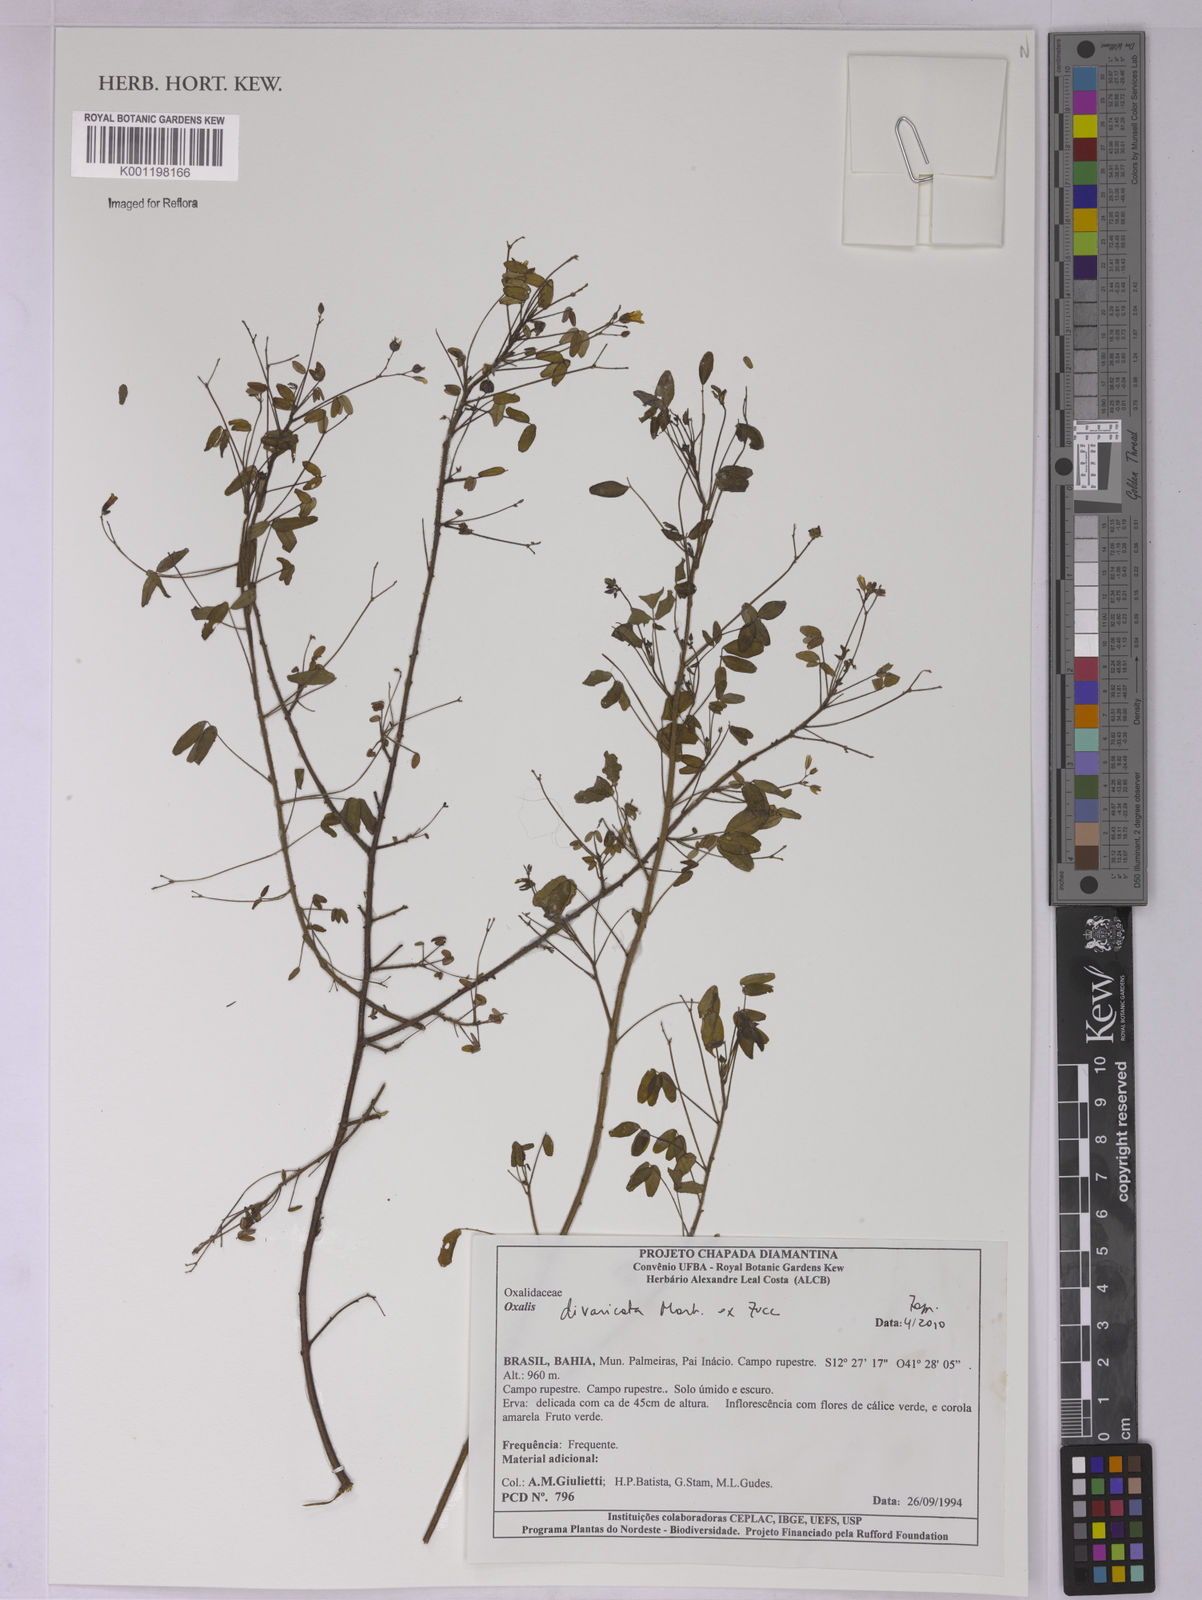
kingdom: Plantae
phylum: Tracheophyta
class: Magnoliopsida
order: Oxalidales
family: Oxalidaceae
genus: Oxalis
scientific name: Oxalis divaricata
